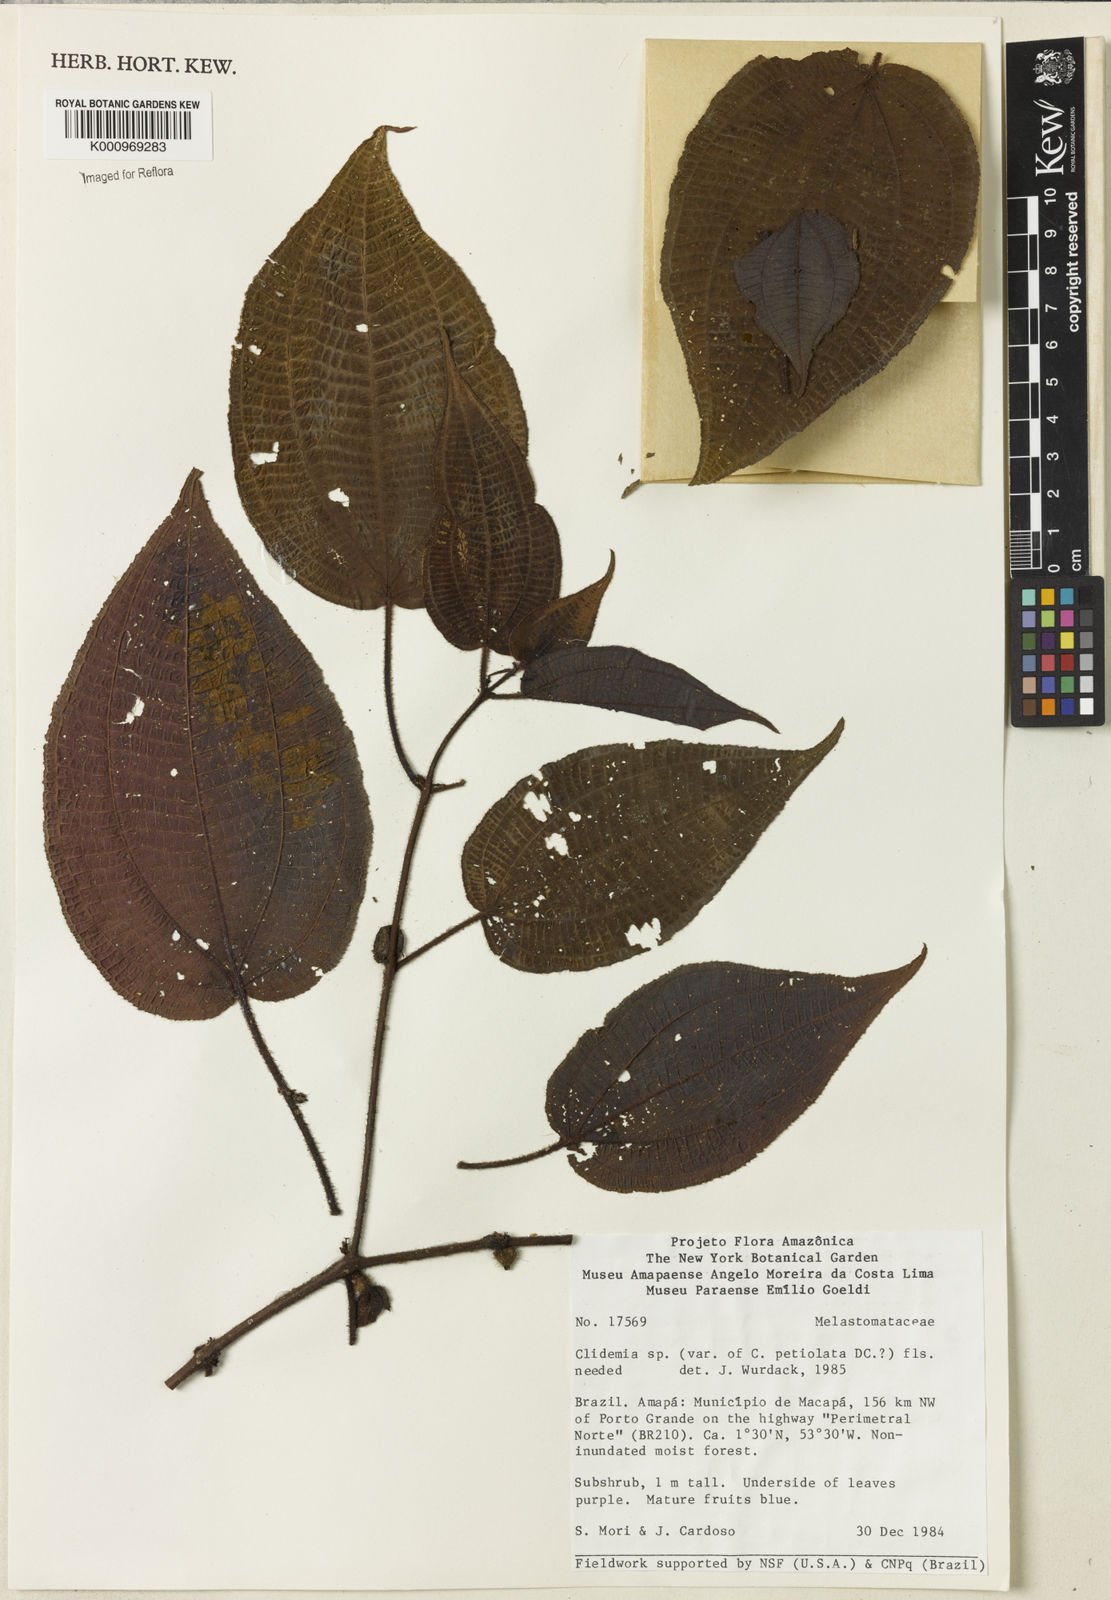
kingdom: Plantae
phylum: Tracheophyta
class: Magnoliopsida
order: Myrtales
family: Melastomataceae
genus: Miconia
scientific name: Miconia
